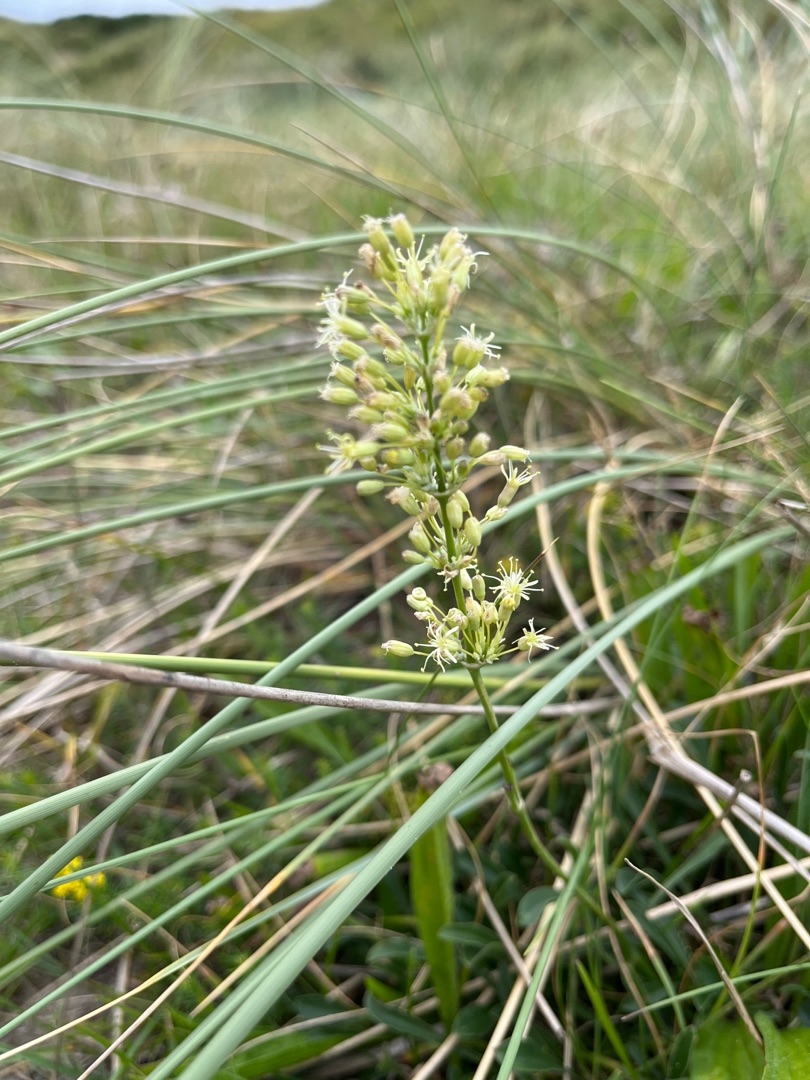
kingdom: Plantae
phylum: Tracheophyta
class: Magnoliopsida
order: Caryophyllales
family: Caryophyllaceae
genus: Silene
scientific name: Silene otites
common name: Klit-limurt
